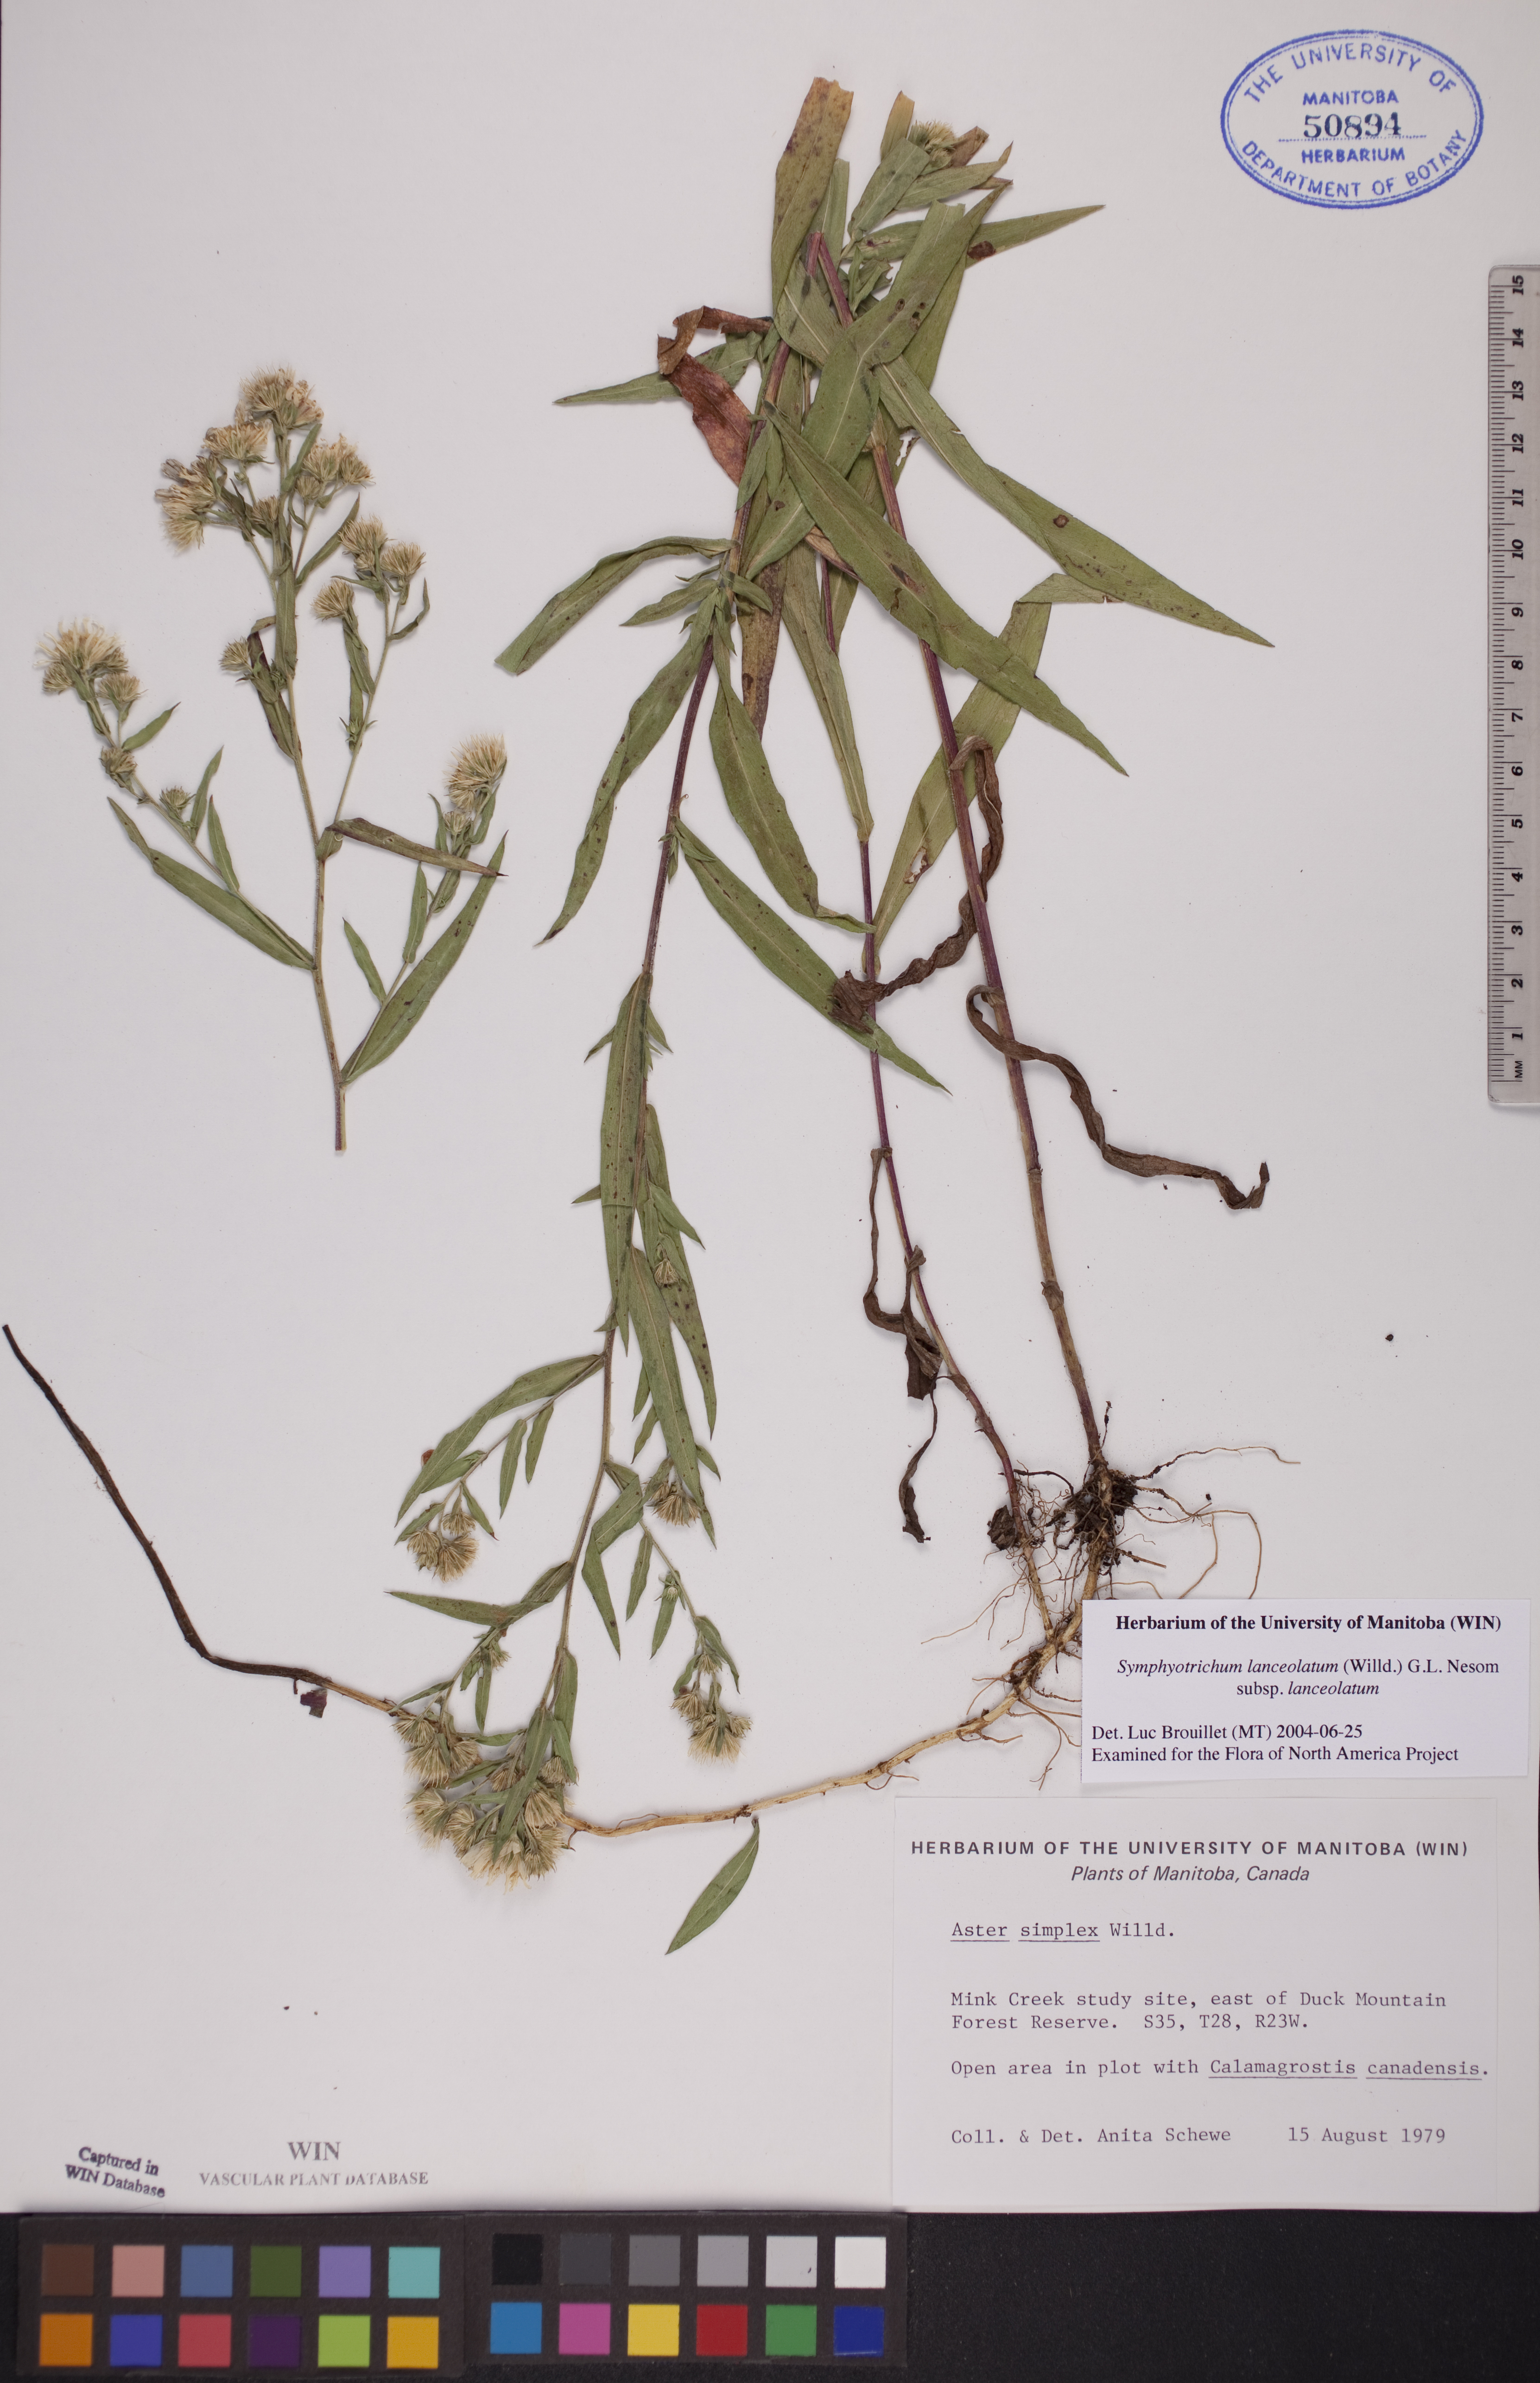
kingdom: Plantae
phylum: Tracheophyta
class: Magnoliopsida
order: Asterales
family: Asteraceae
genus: Symphyotrichum
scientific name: Symphyotrichum lanceolatum
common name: Panicled aster
